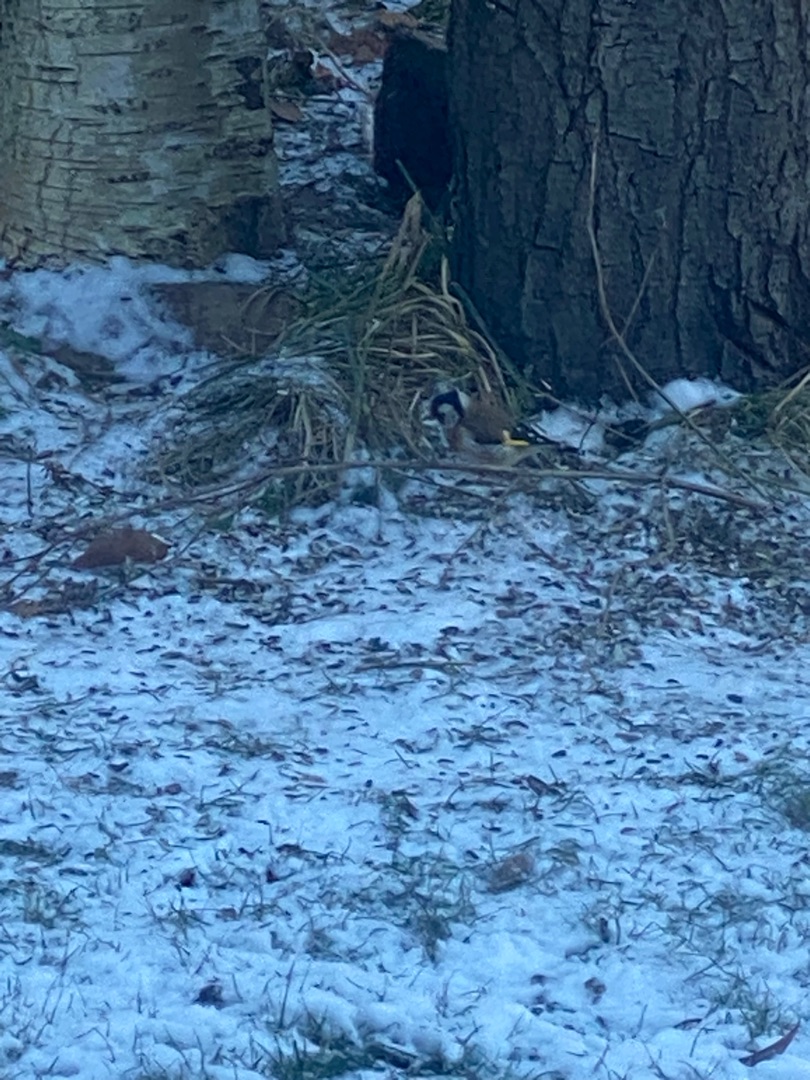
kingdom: Animalia
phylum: Chordata
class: Aves
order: Passeriformes
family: Fringillidae
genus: Carduelis
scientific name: Carduelis carduelis
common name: Stillits
